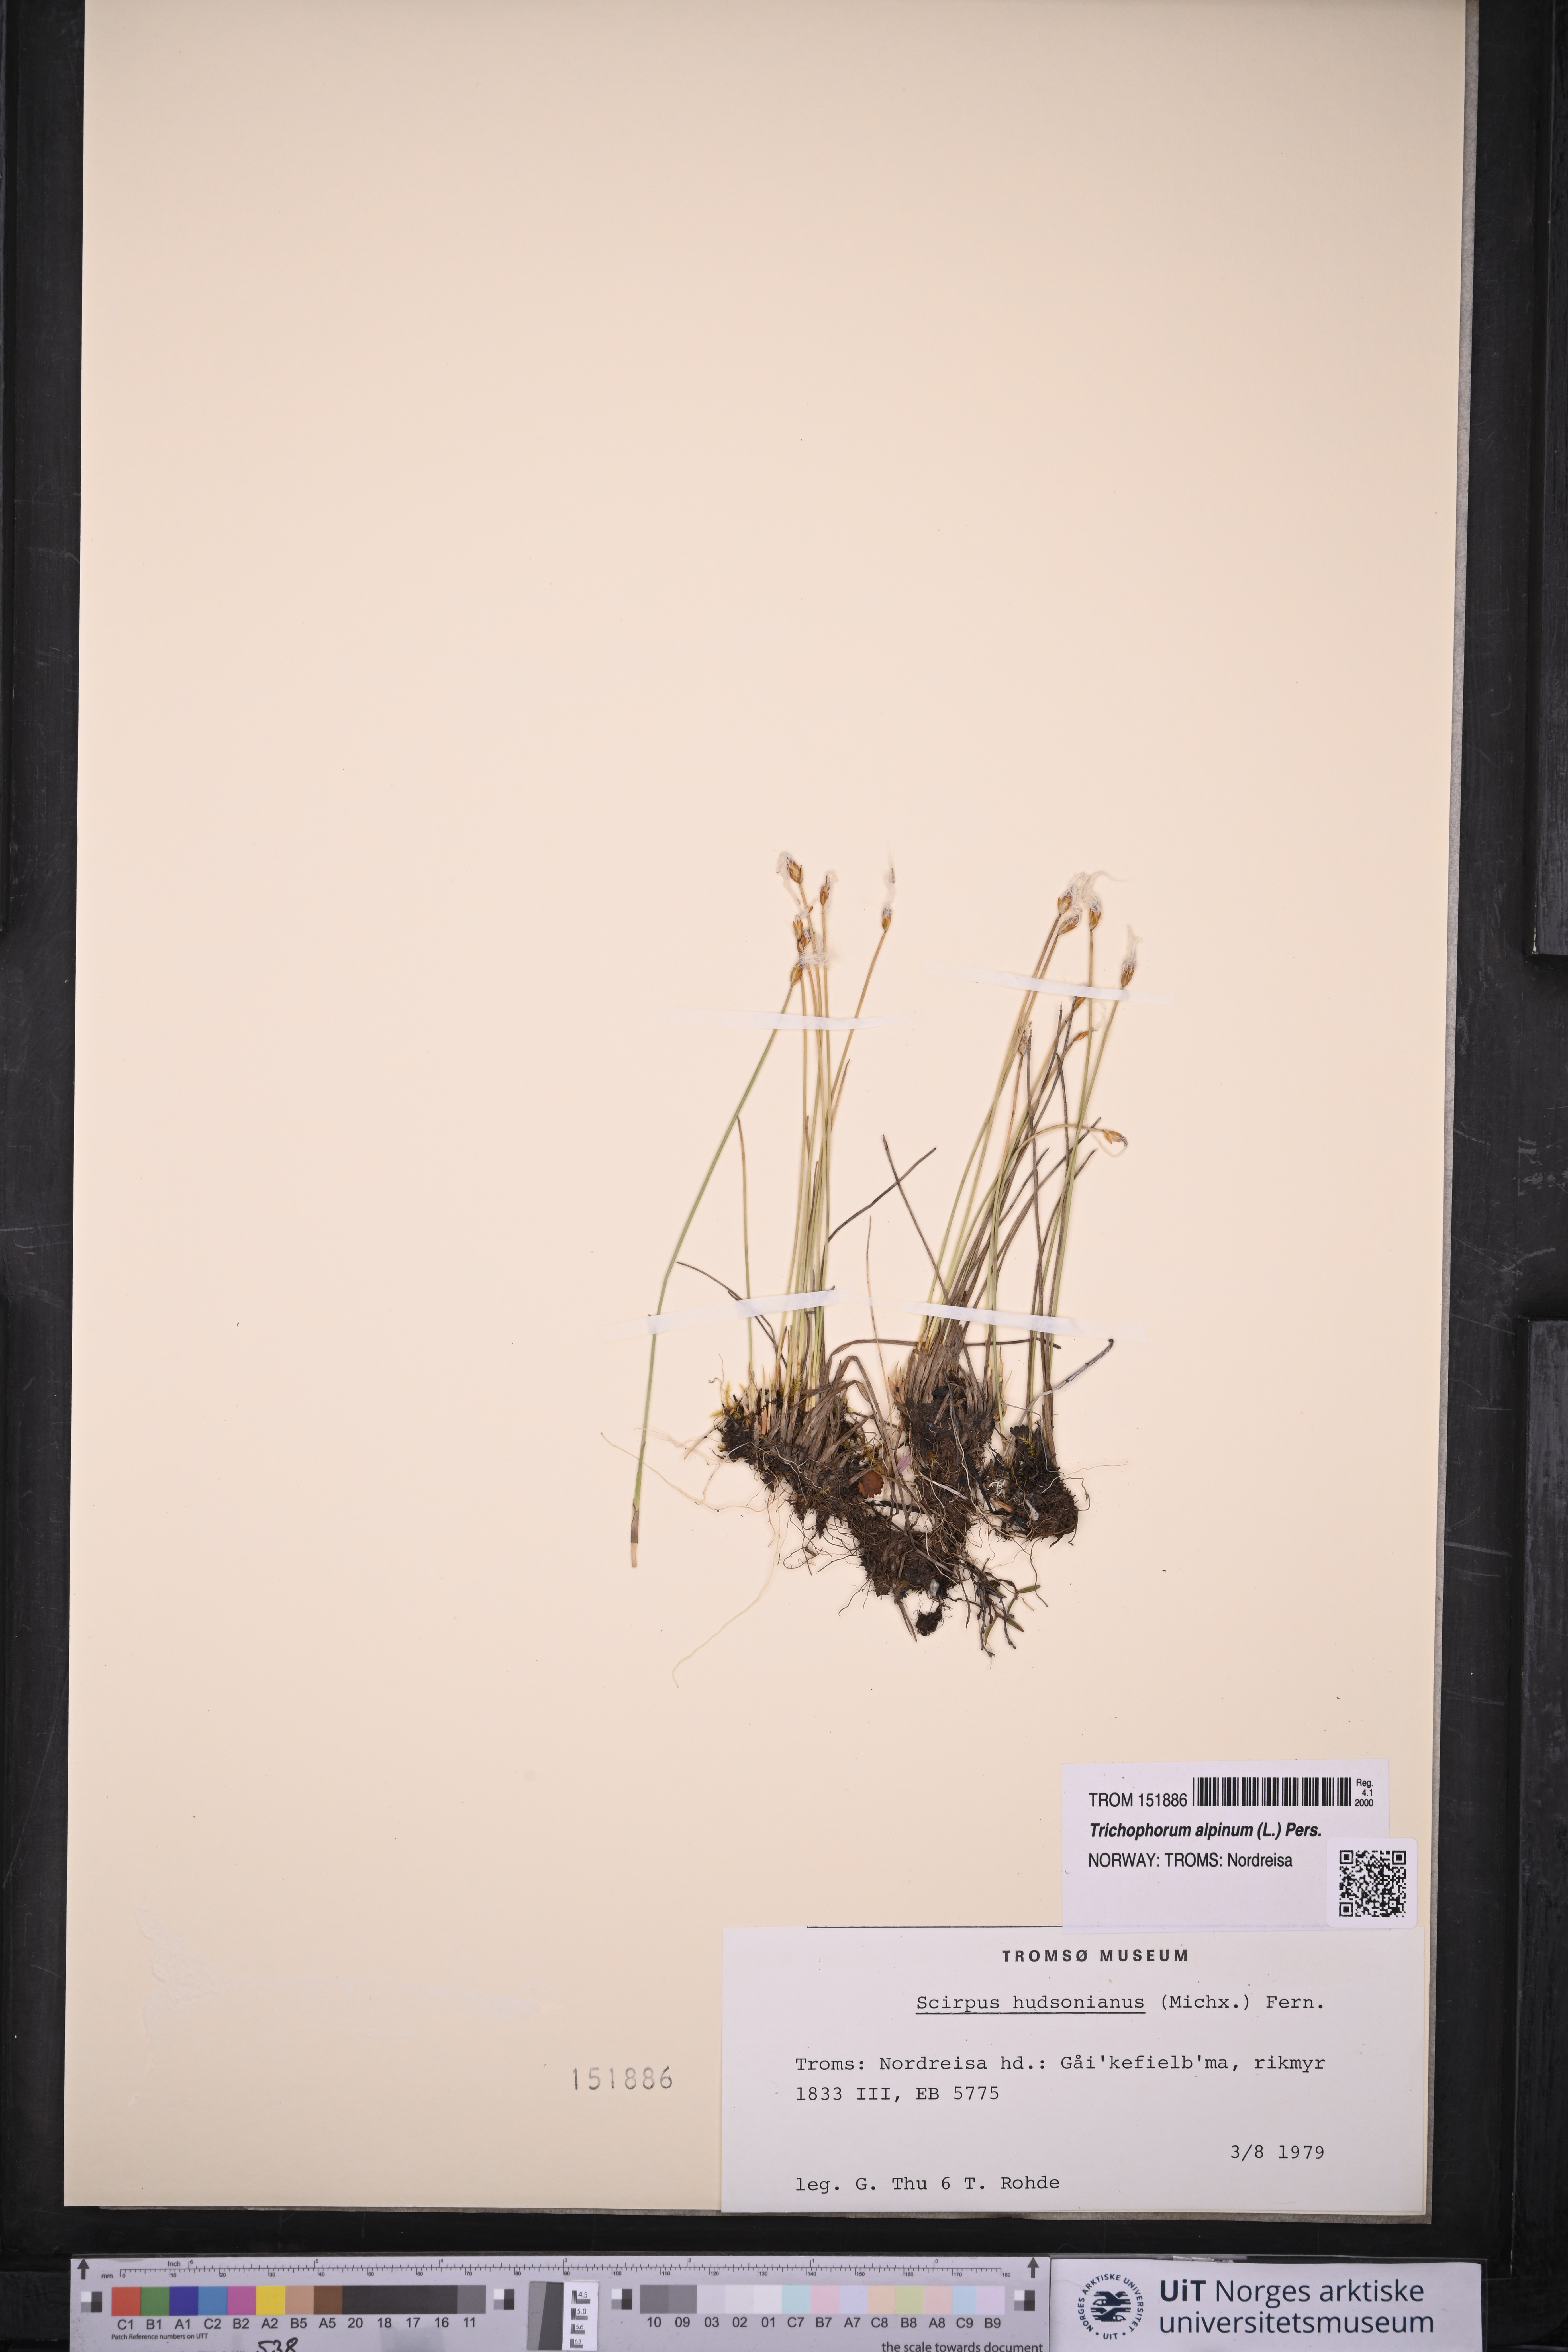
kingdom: Plantae
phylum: Tracheophyta
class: Liliopsida
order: Poales
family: Cyperaceae
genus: Trichophorum
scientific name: Trichophorum alpinum
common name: Alpine bulrush
